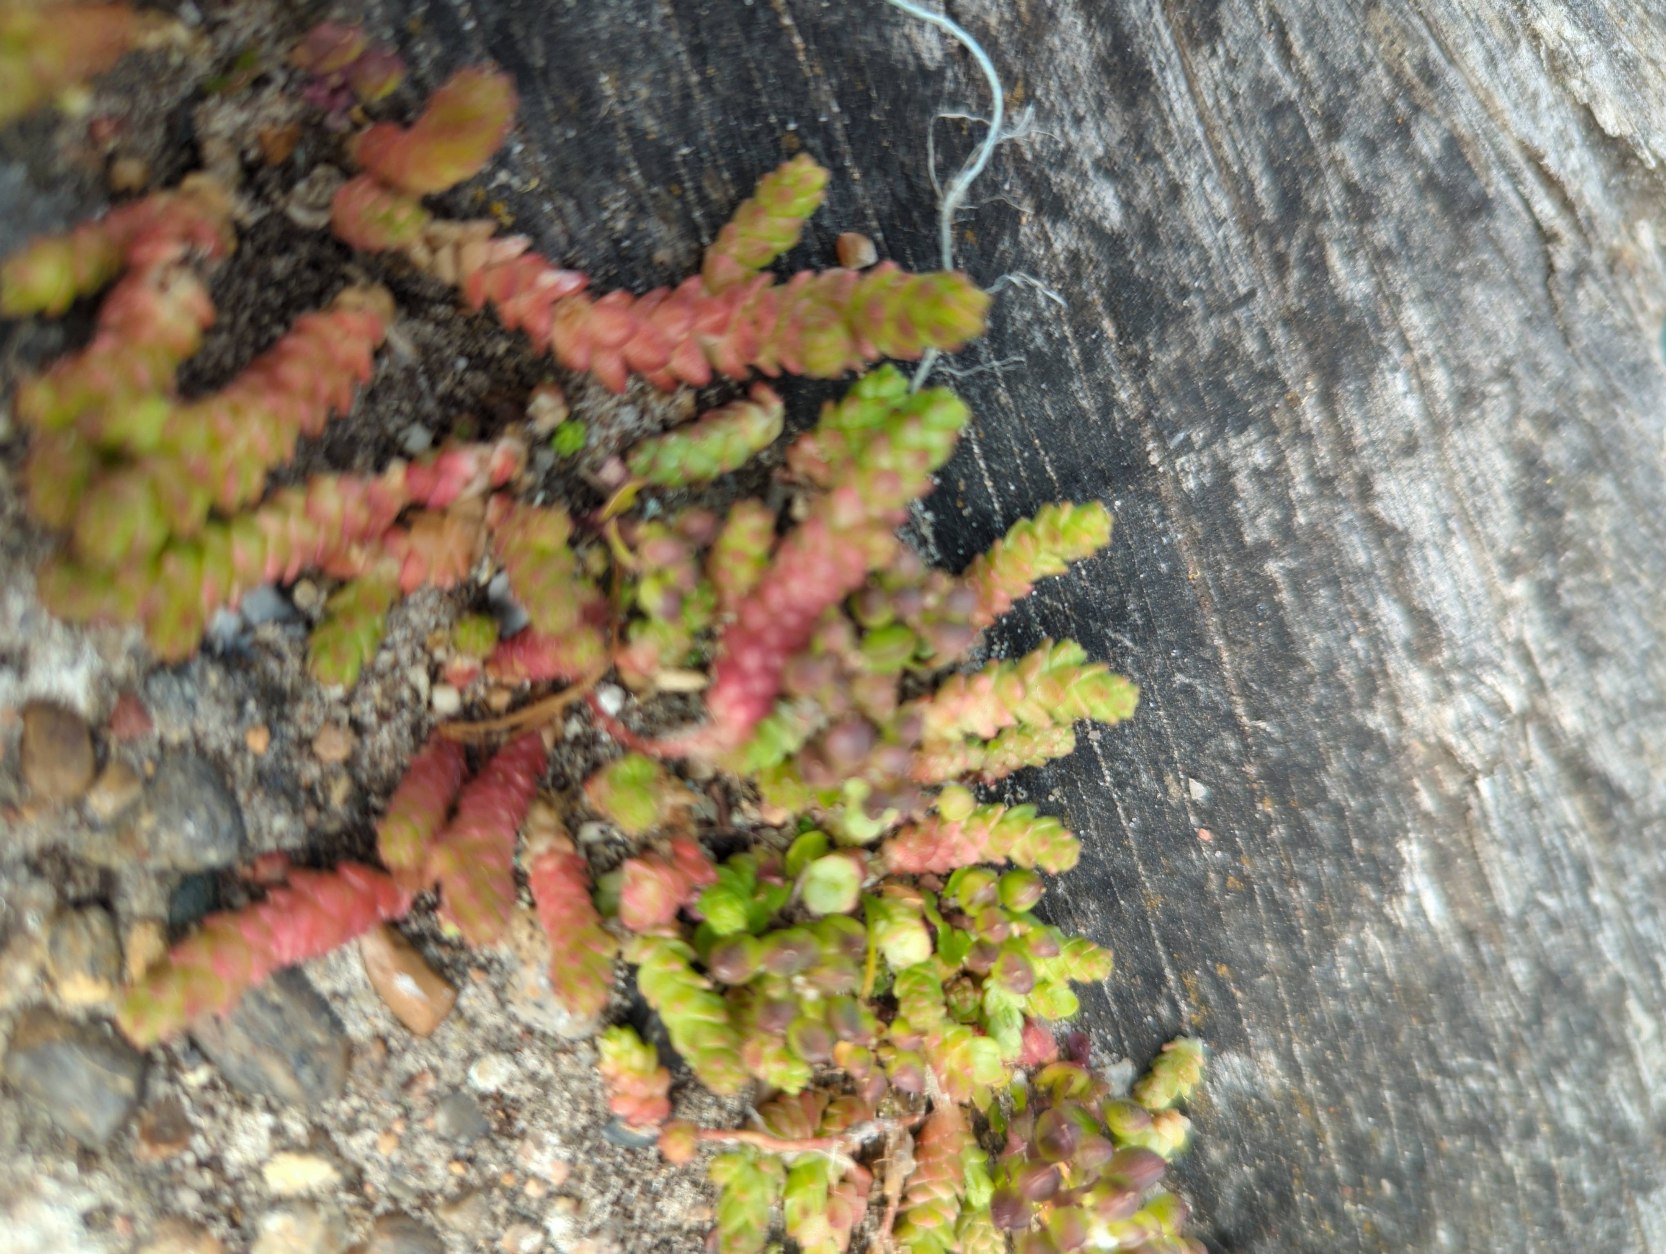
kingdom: Plantae
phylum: Tracheophyta
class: Magnoliopsida
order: Saxifragales
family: Crassulaceae
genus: Sedum
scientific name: Sedum acre
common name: Bidende stenurt
